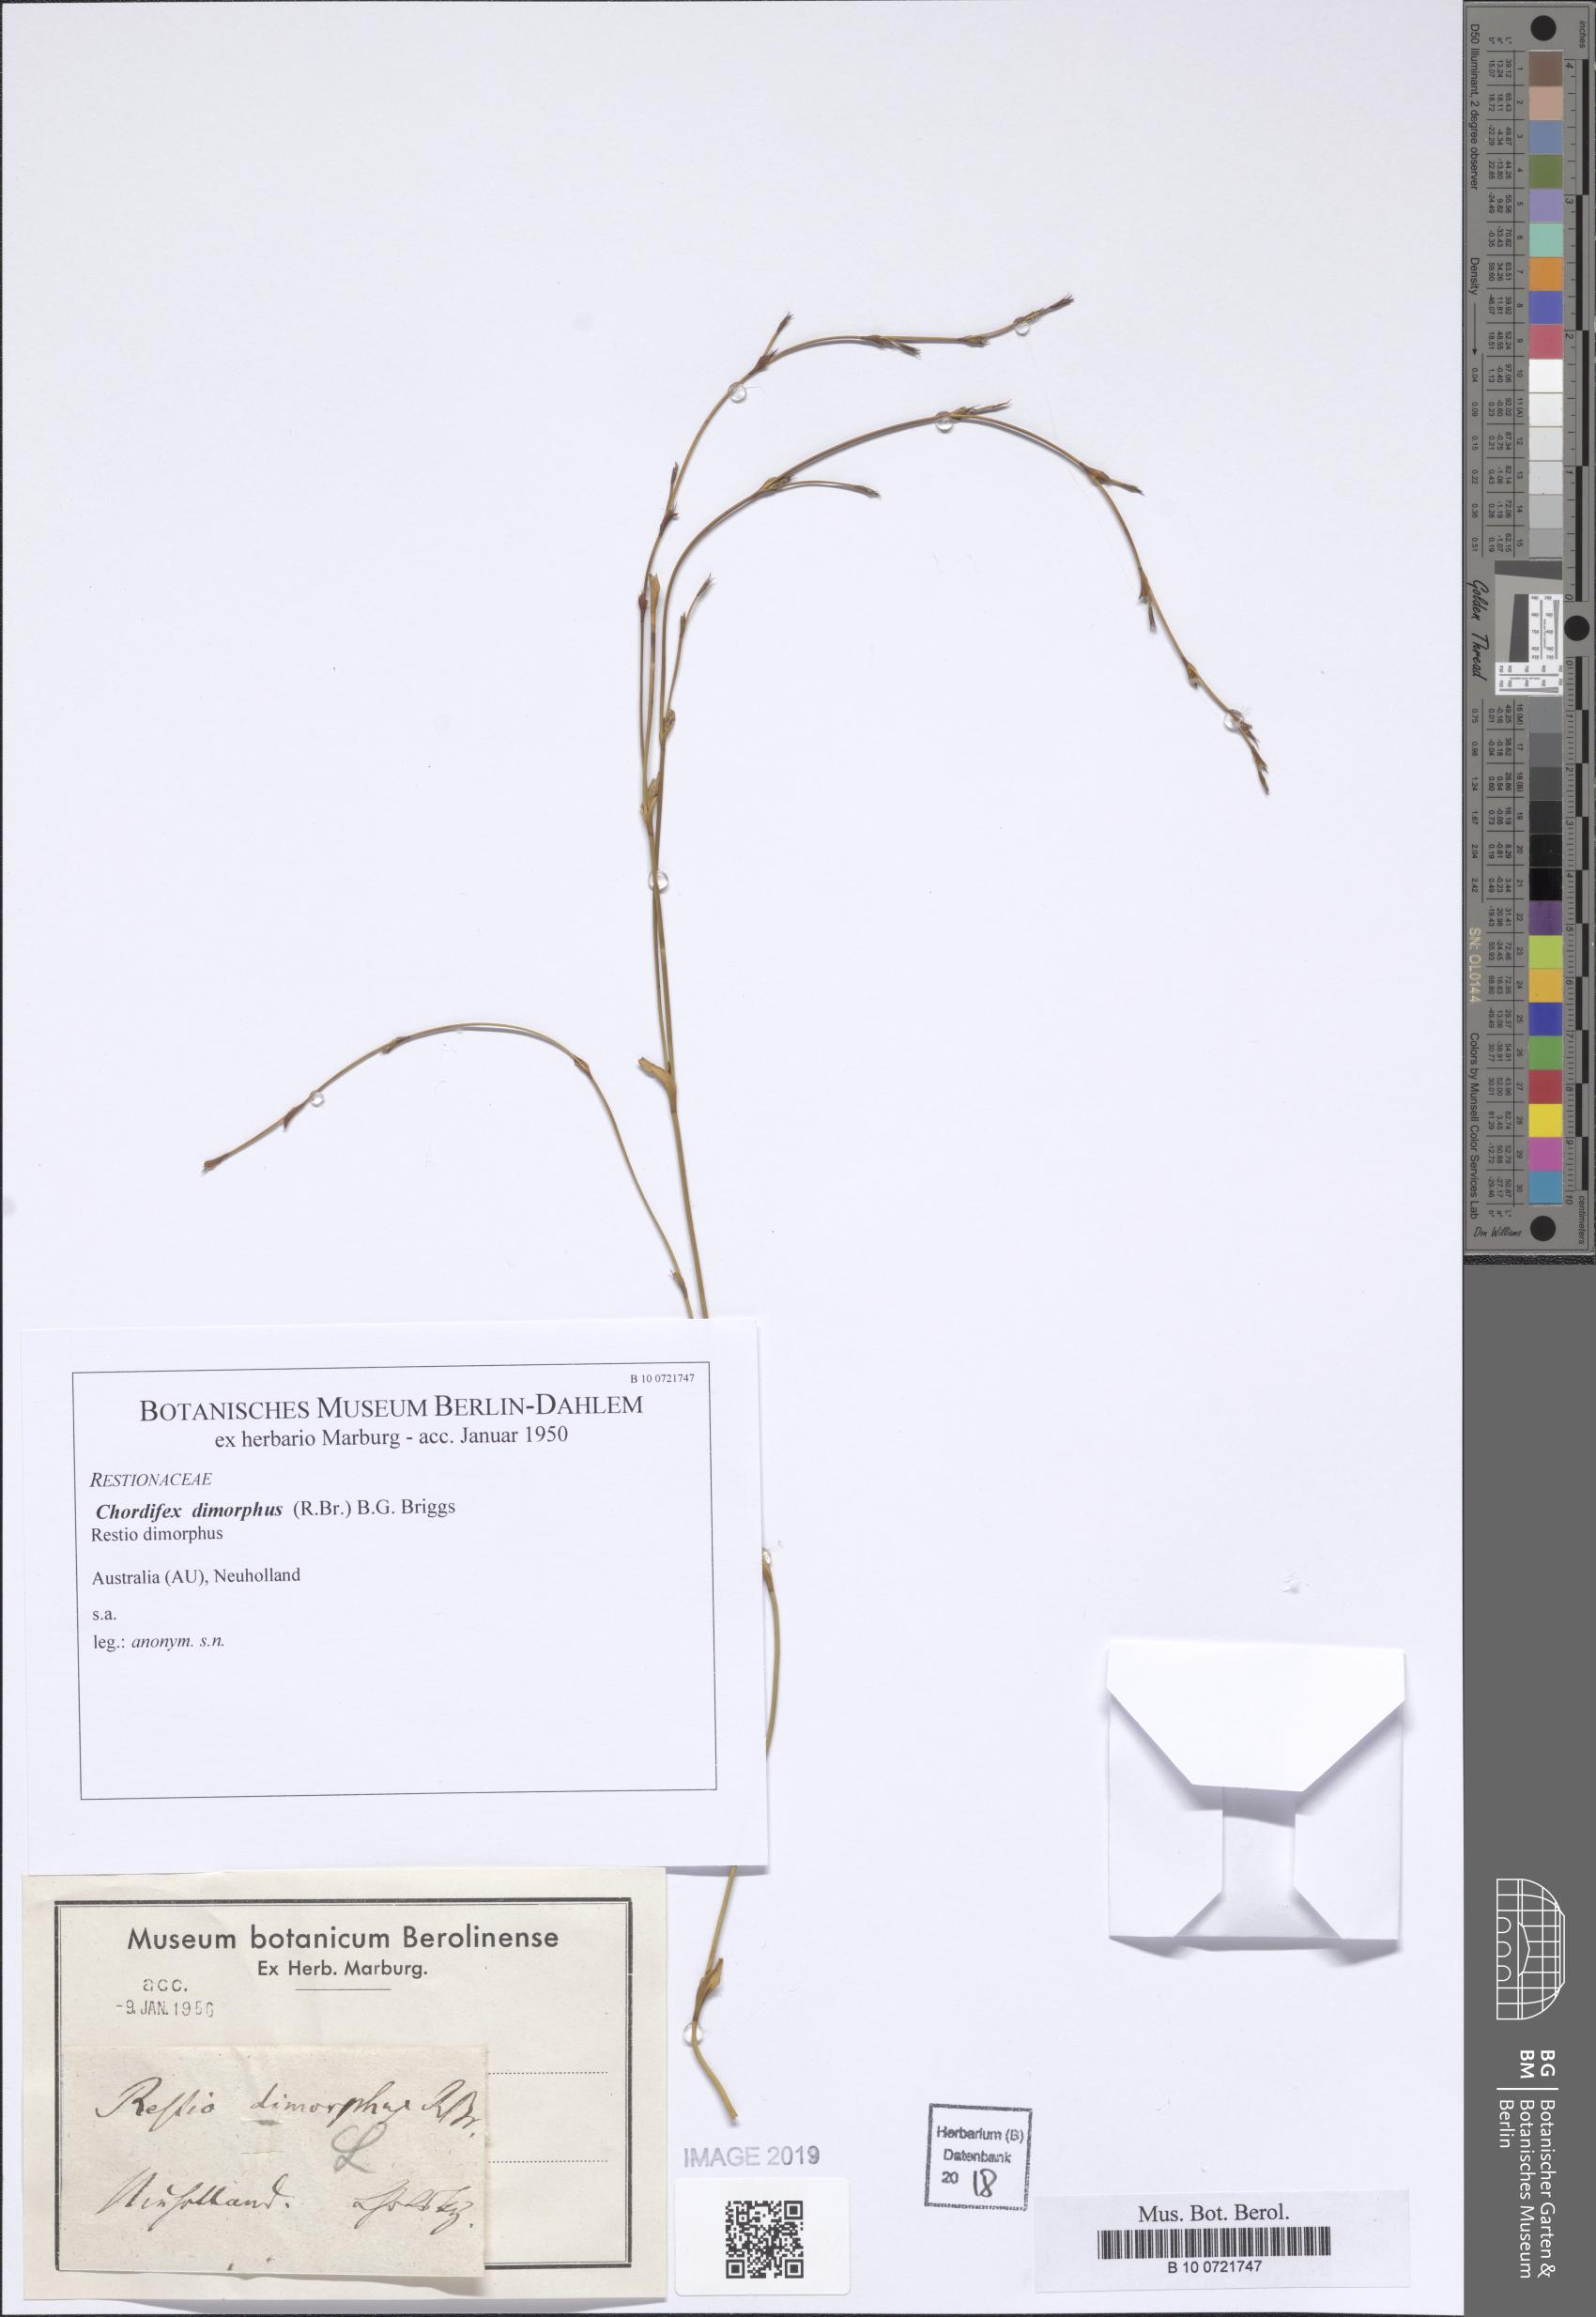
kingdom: Plantae
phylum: Tracheophyta
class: Liliopsida
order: Poales
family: Restionaceae
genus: Chordifex
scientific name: Chordifex dimorphus
